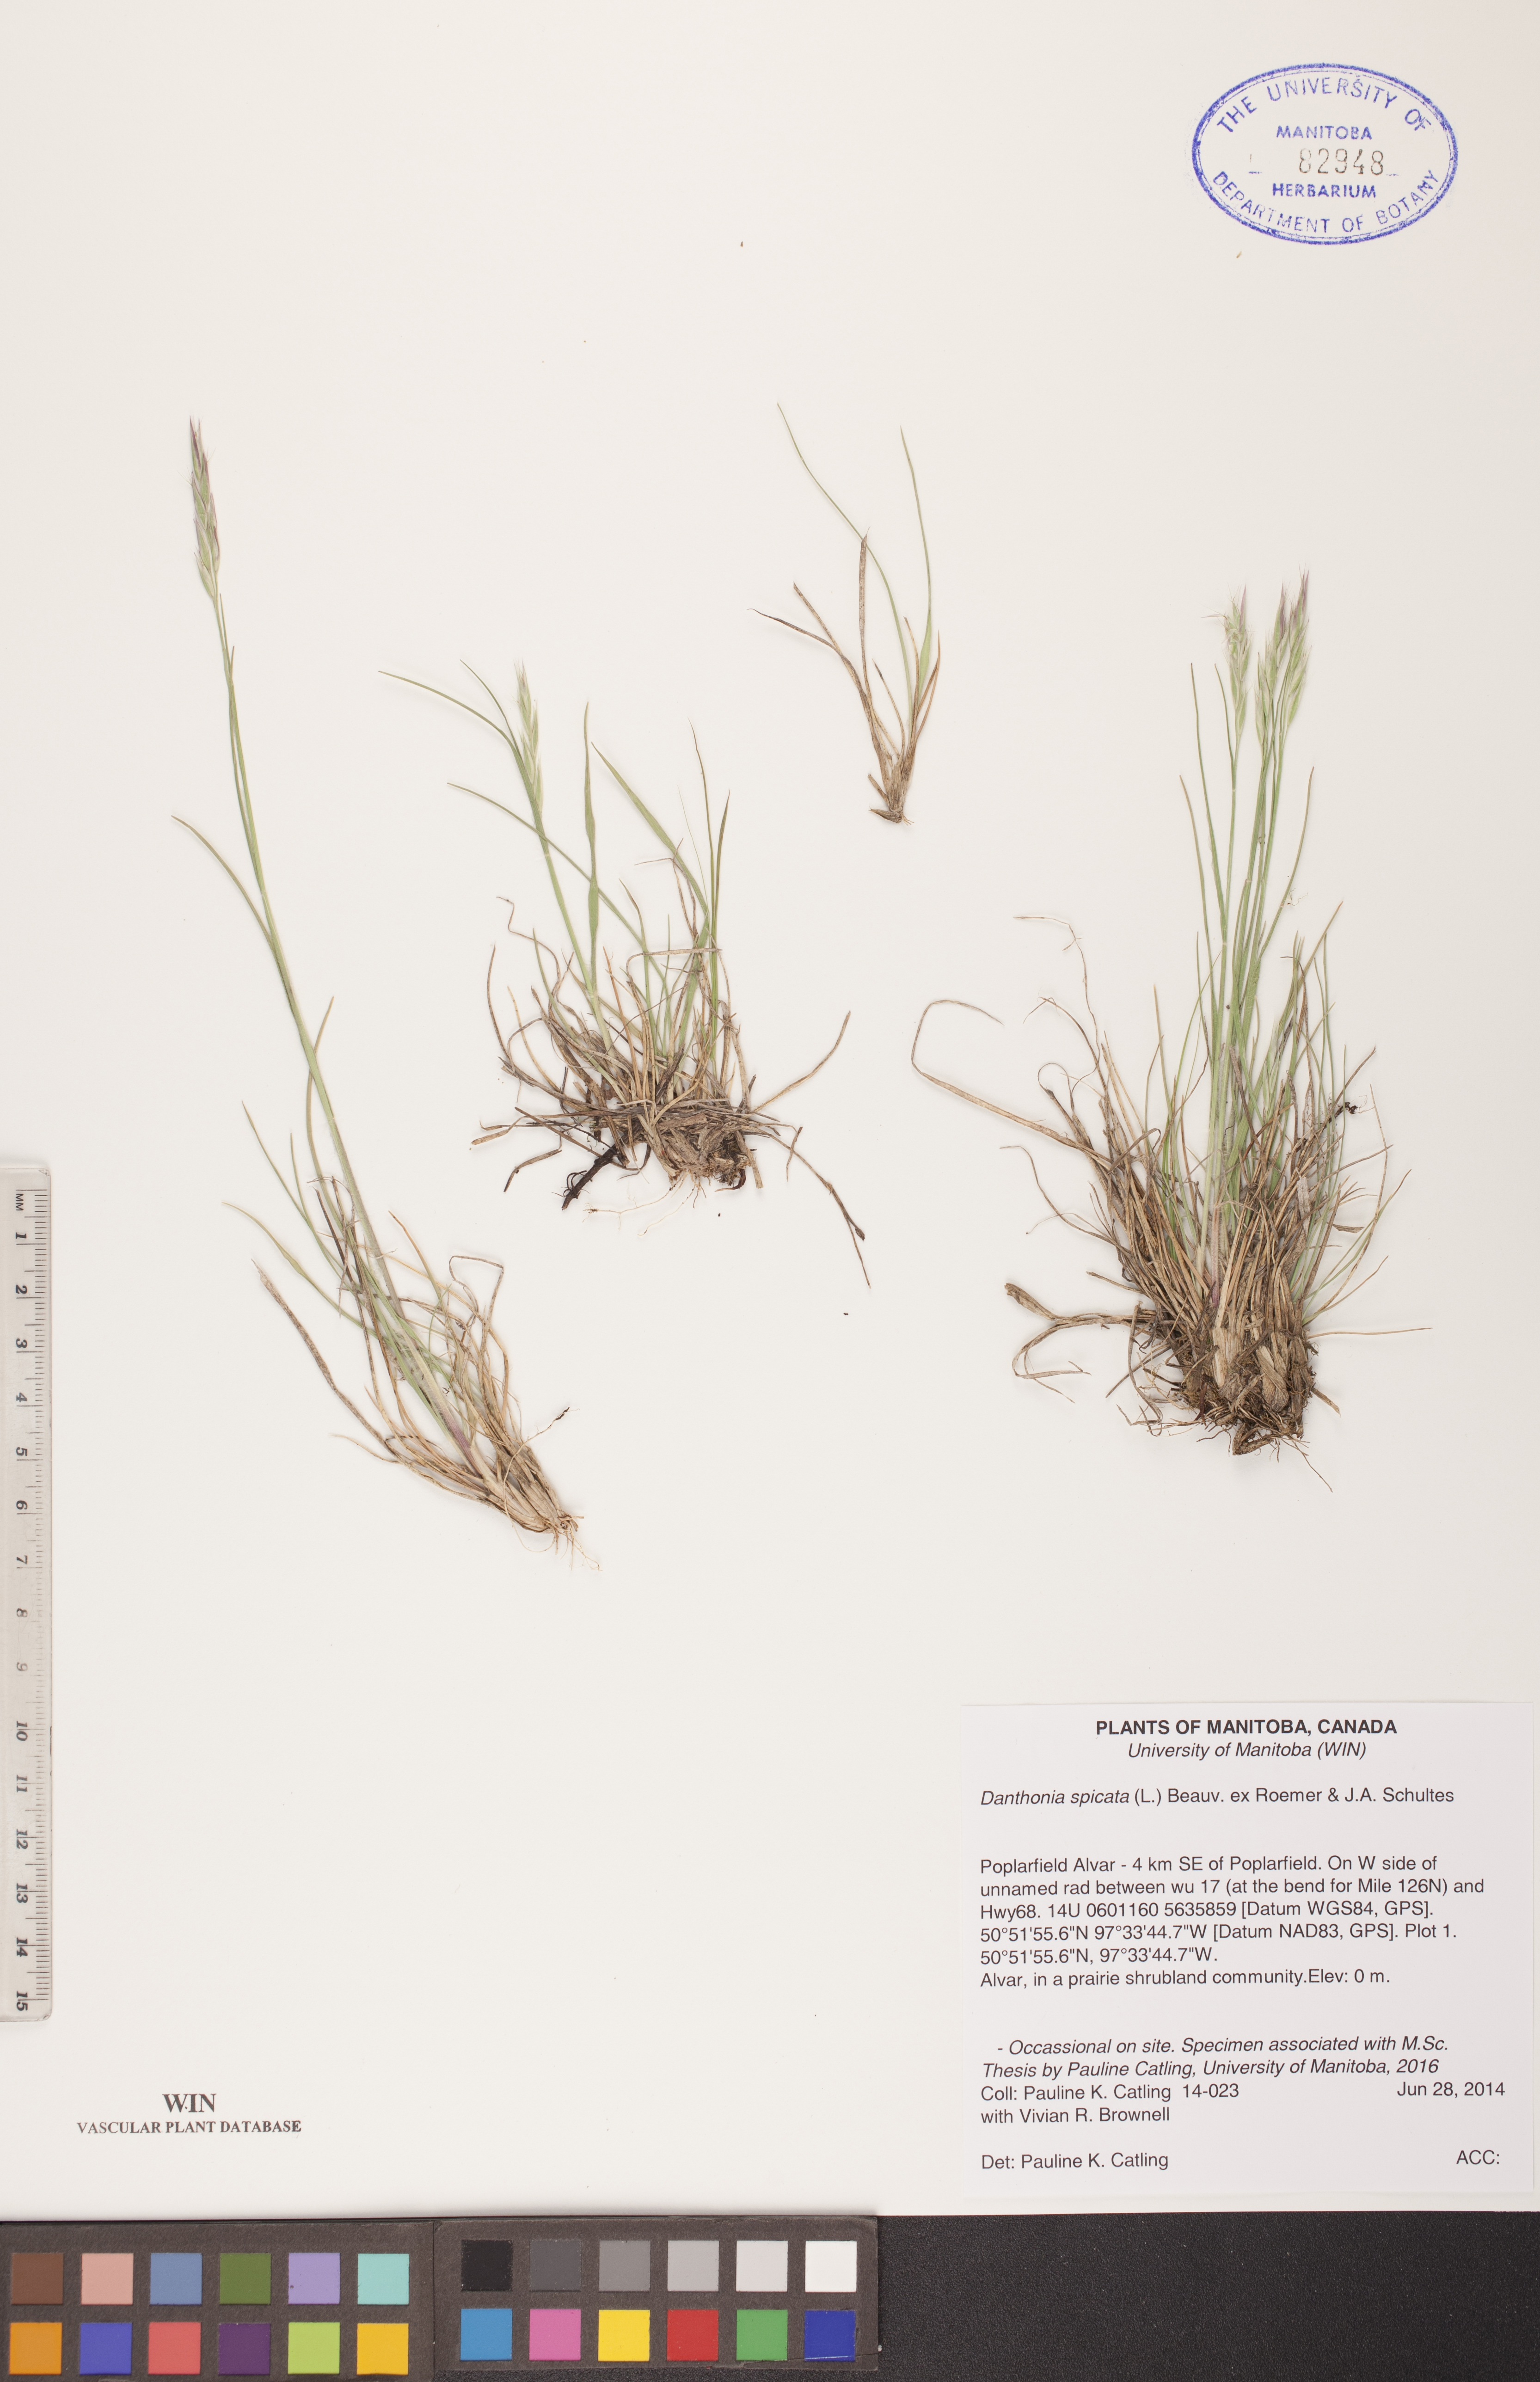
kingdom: Plantae
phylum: Tracheophyta
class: Liliopsida
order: Poales
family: Poaceae
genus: Danthonia
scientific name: Danthonia spicata
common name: Common wild oatgrass
